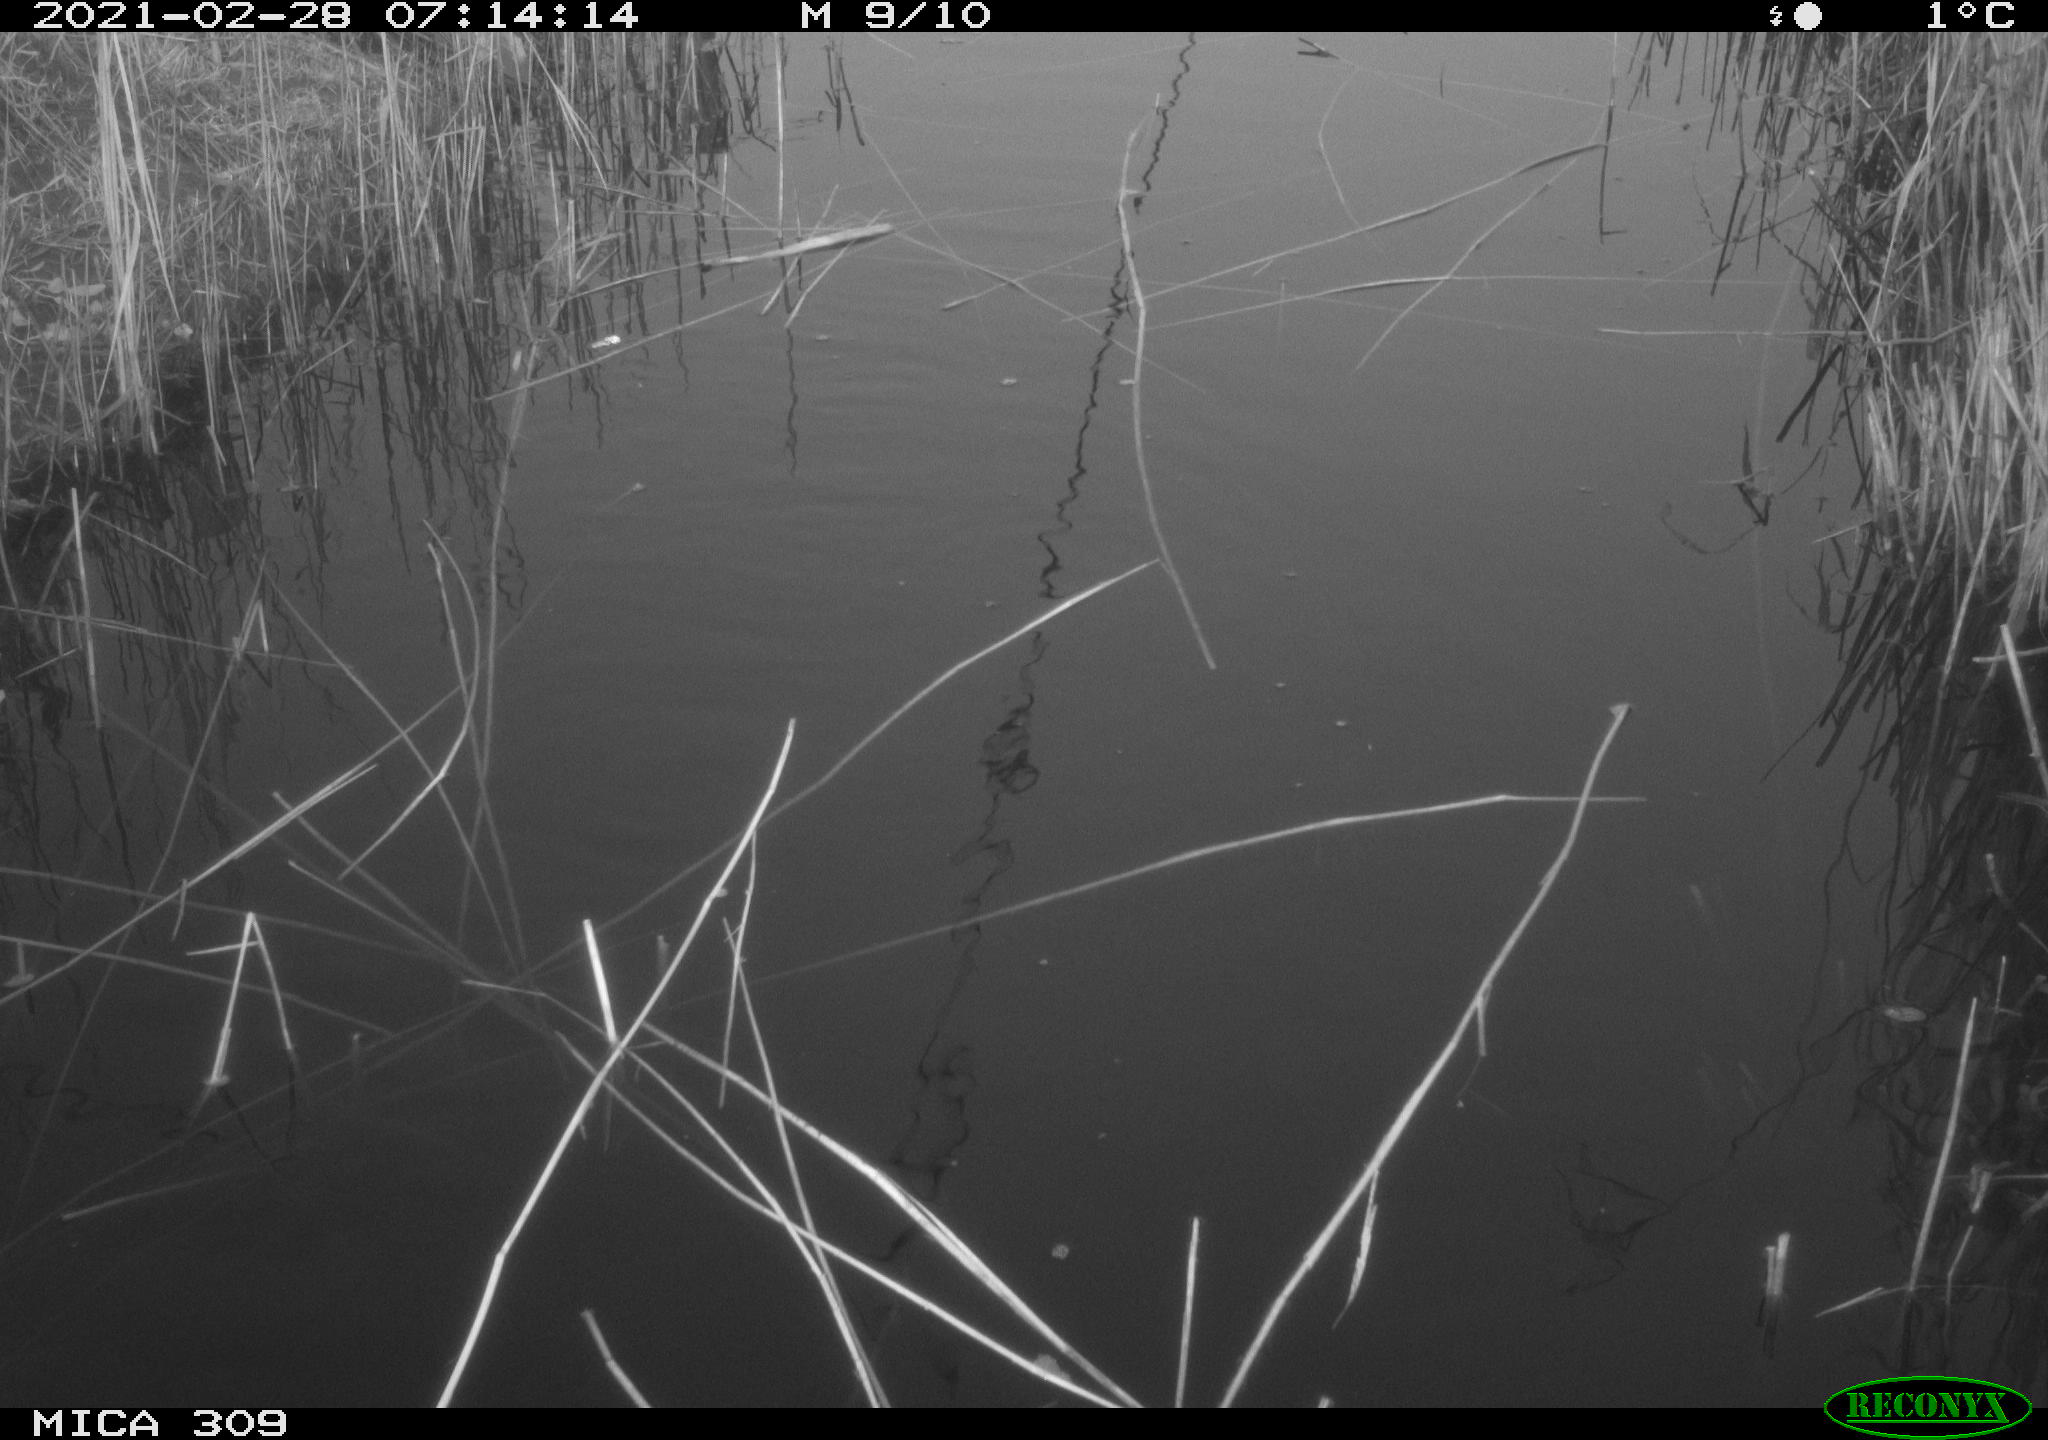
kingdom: Animalia
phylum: Chordata
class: Aves
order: Gruiformes
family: Rallidae
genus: Fulica
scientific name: Fulica atra
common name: Eurasian coot
